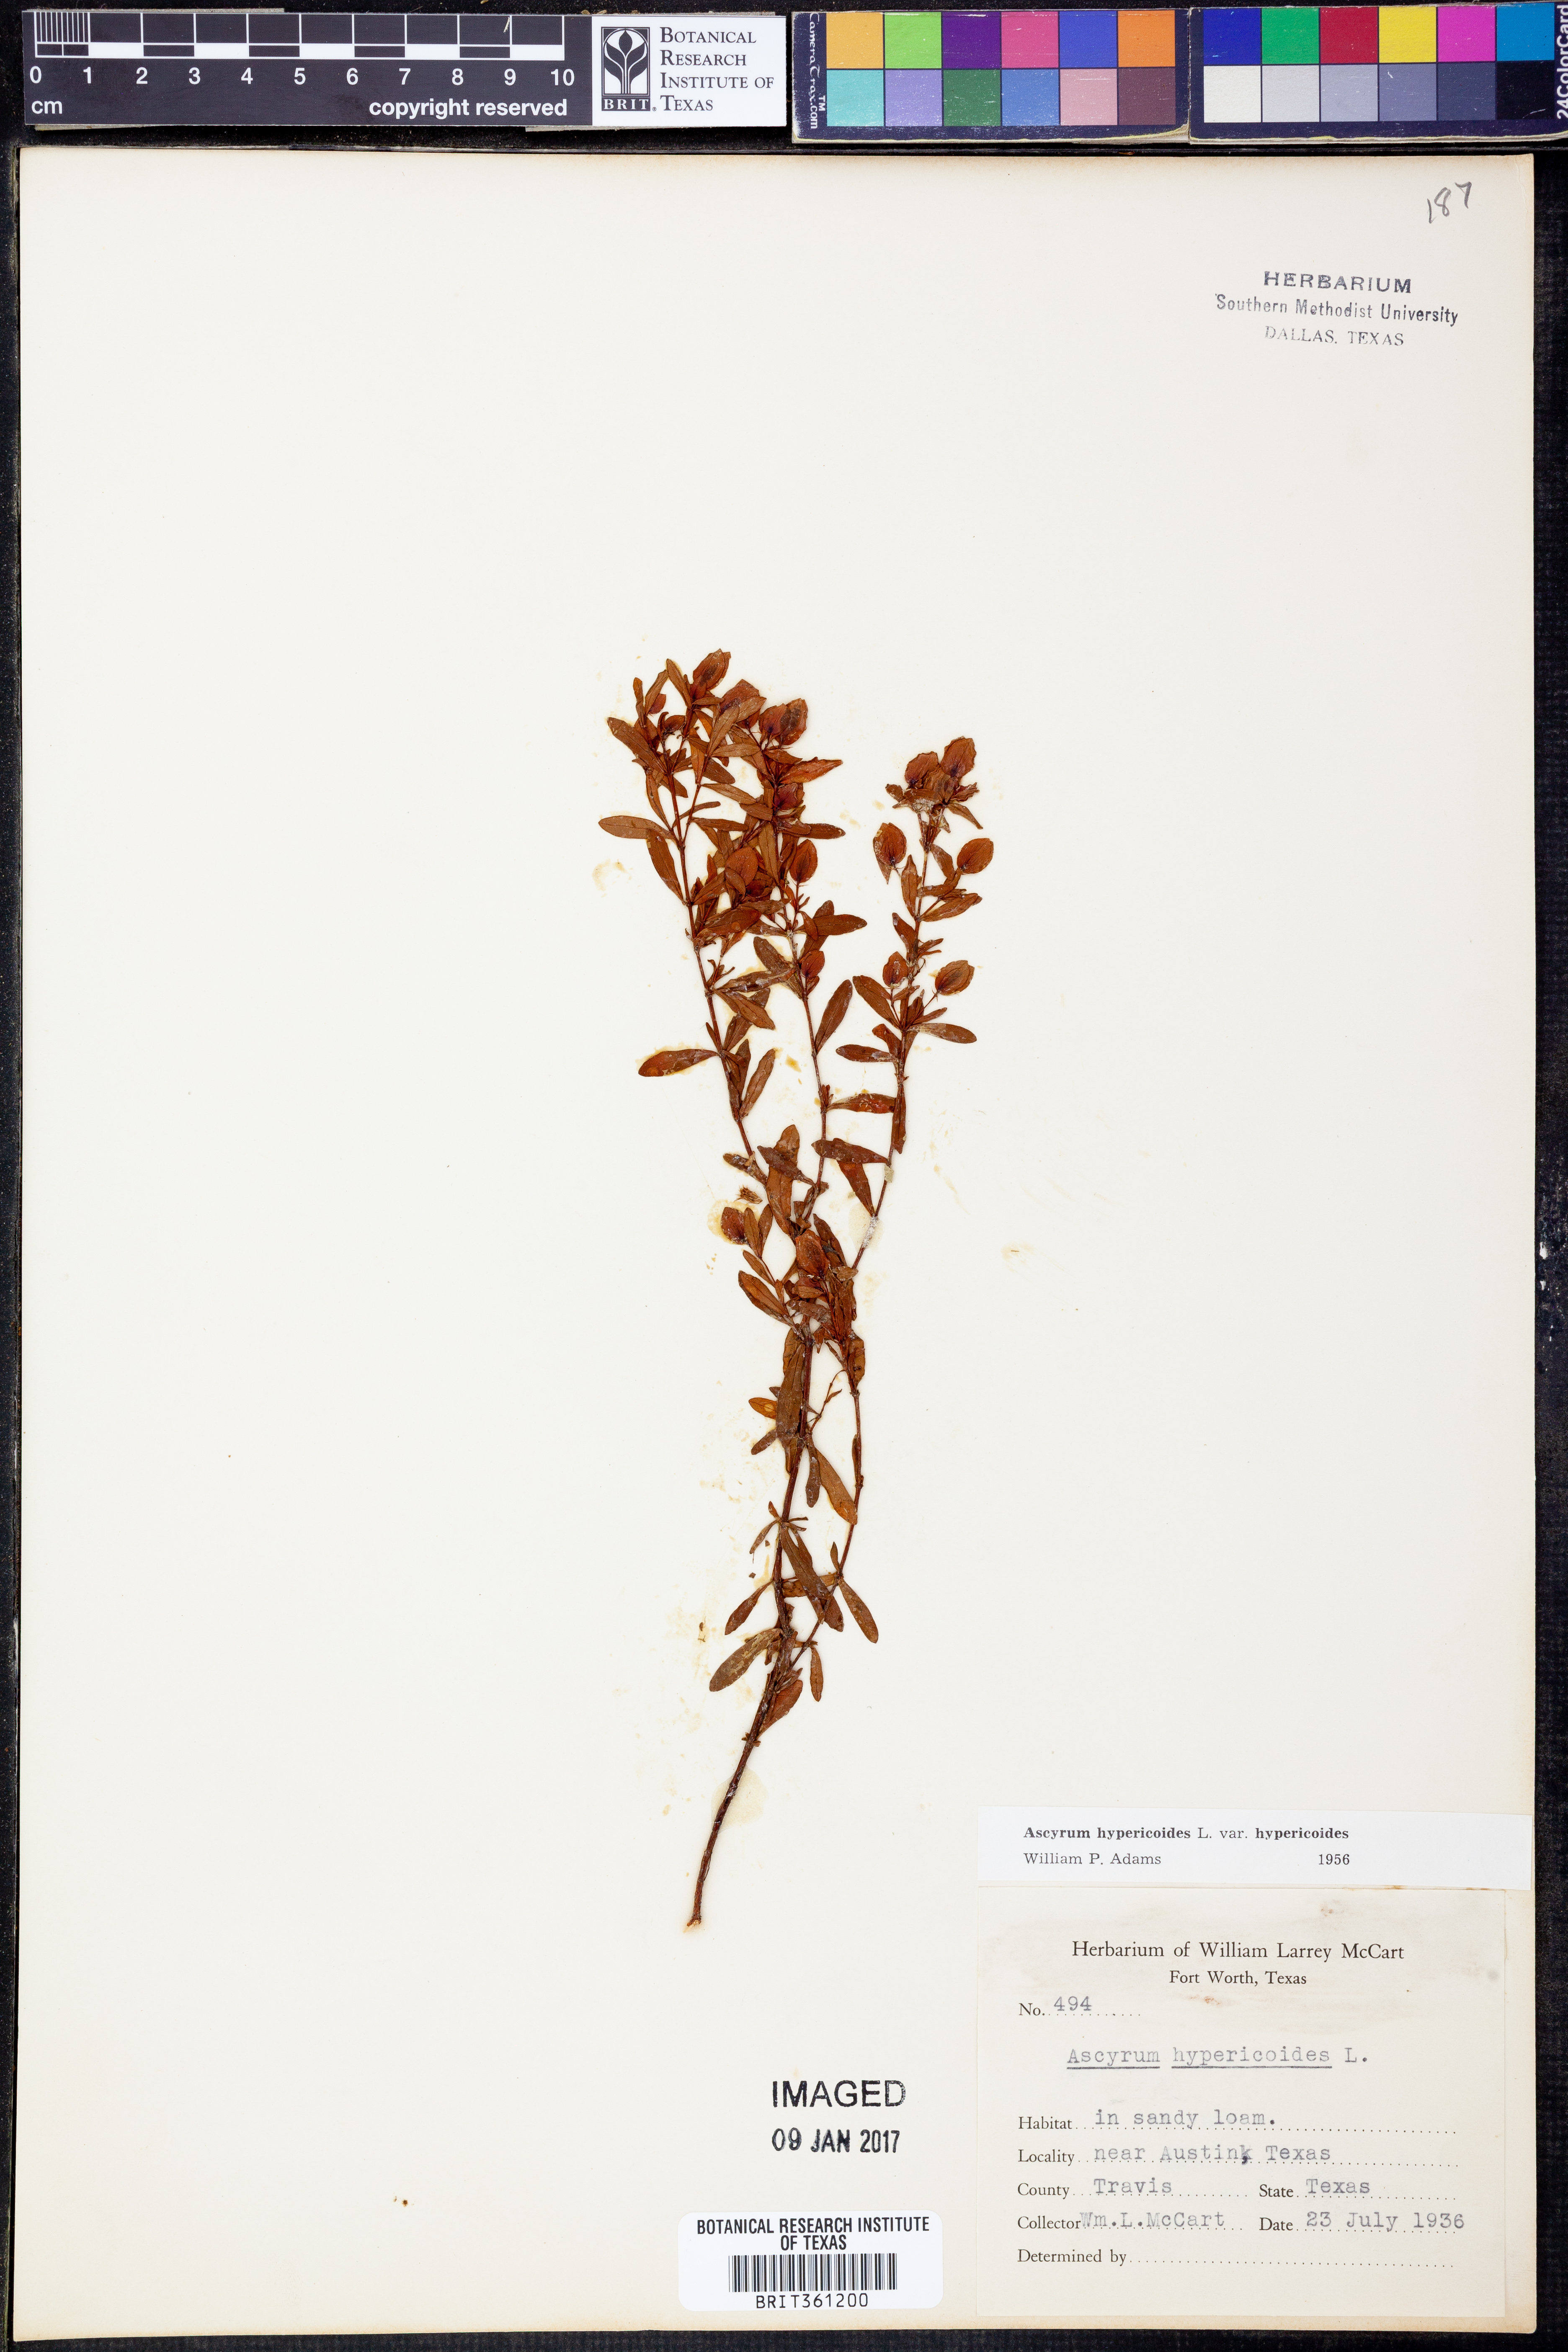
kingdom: Plantae
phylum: Tracheophyta
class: Magnoliopsida
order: Malpighiales
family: Hypericaceae
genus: Hypericum
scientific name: Hypericum hypericoides
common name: St. andrew's cross
